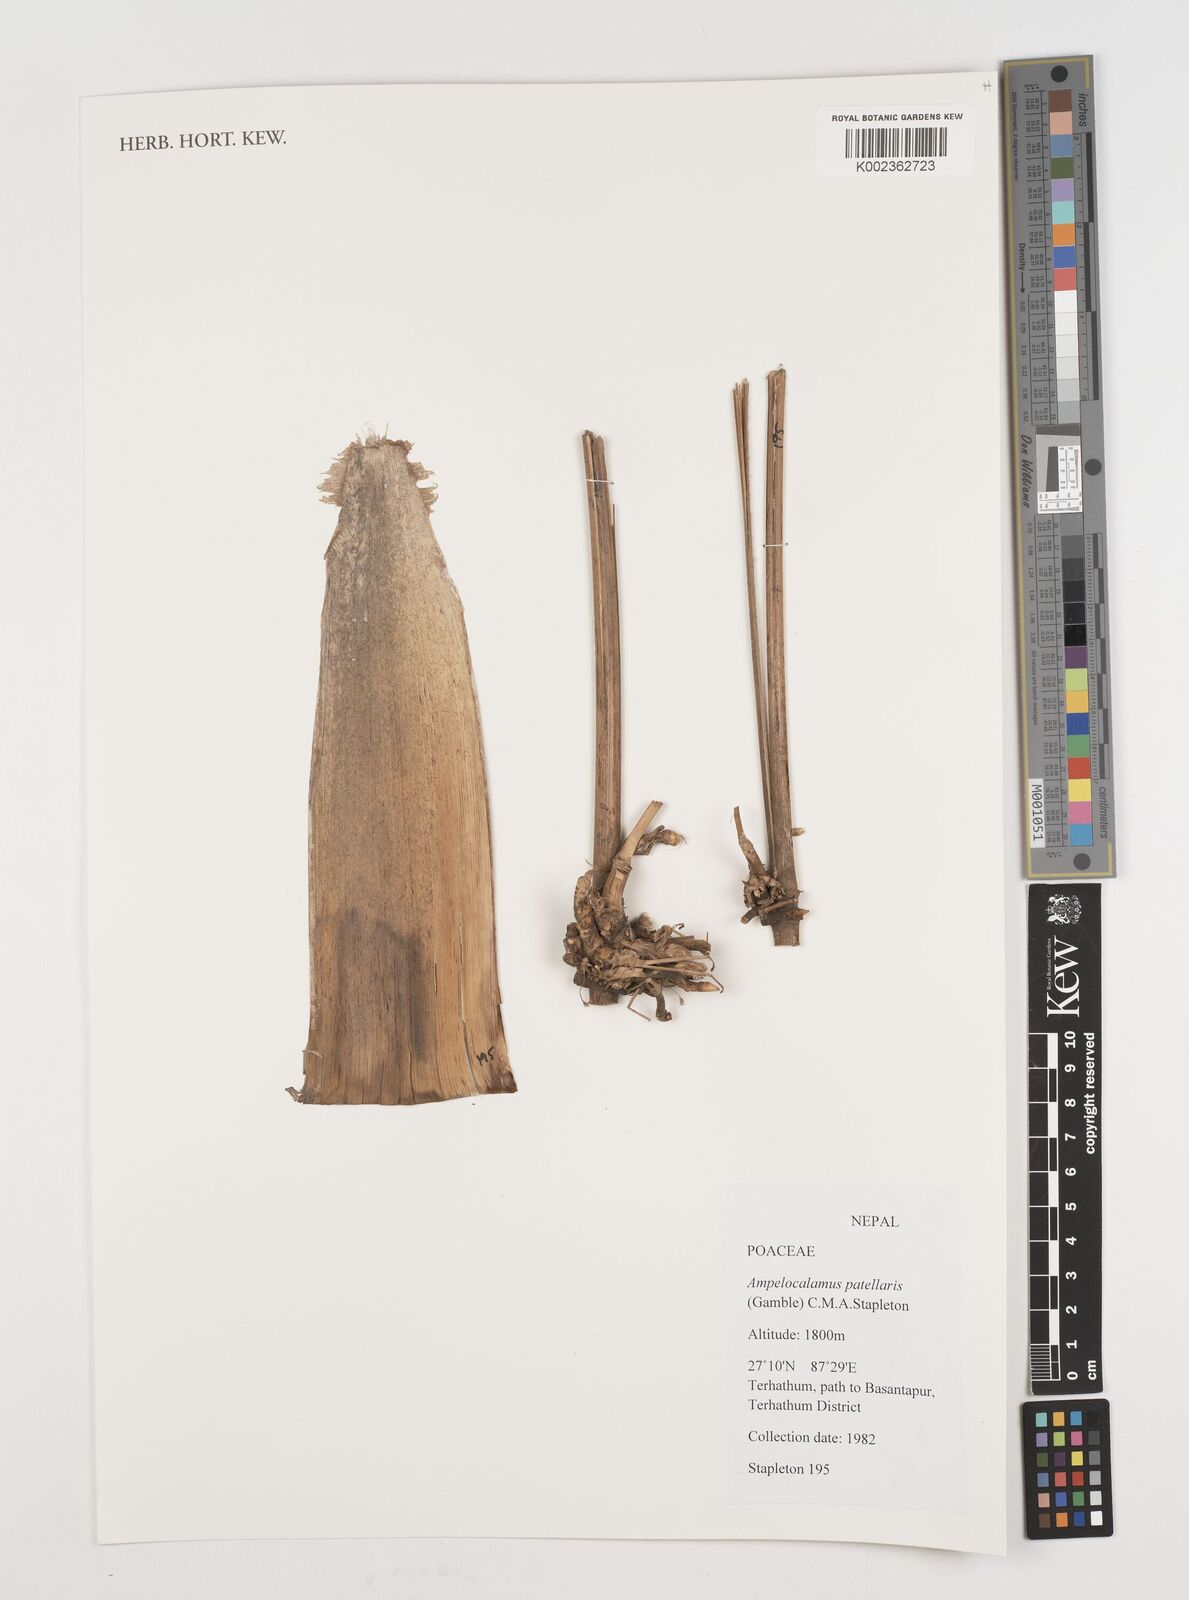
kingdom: Plantae
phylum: Tracheophyta
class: Liliopsida
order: Poales
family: Poaceae
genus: Ampelocalamus
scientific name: Ampelocalamus patellaris
